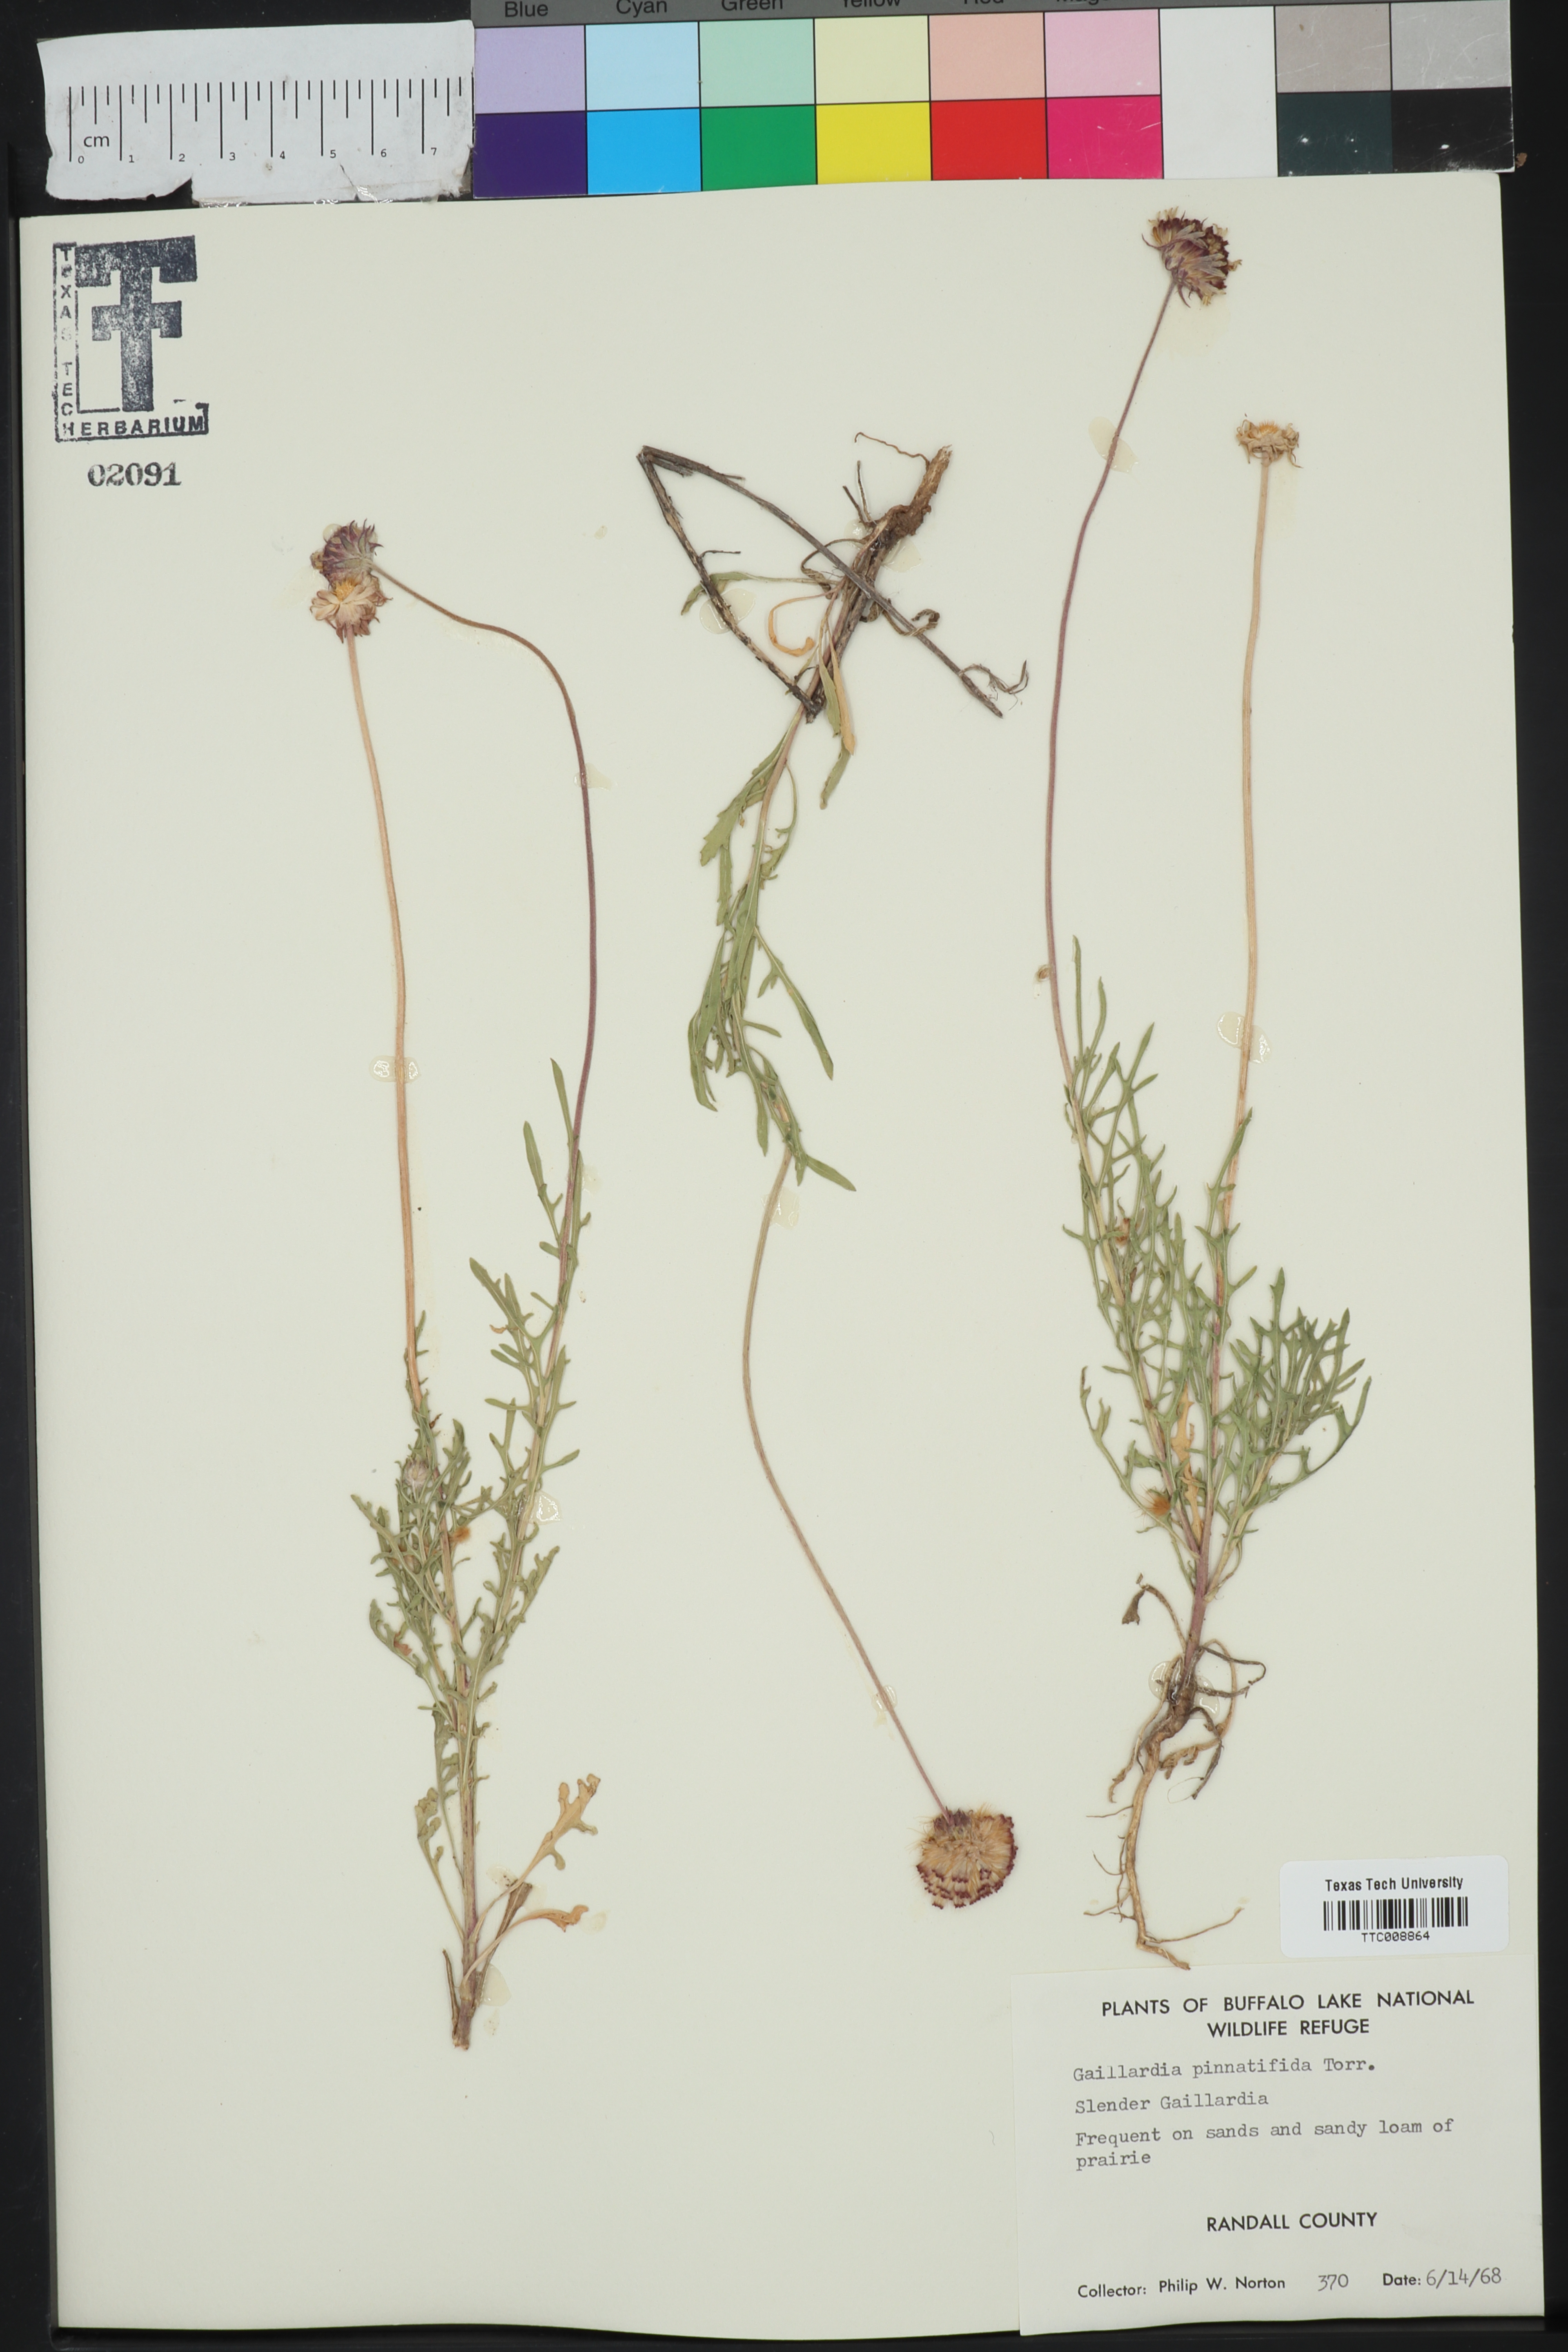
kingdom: Plantae
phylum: Tracheophyta
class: Magnoliopsida
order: Asterales
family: Asteraceae
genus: Gaillardia
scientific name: Gaillardia pinnatifida
